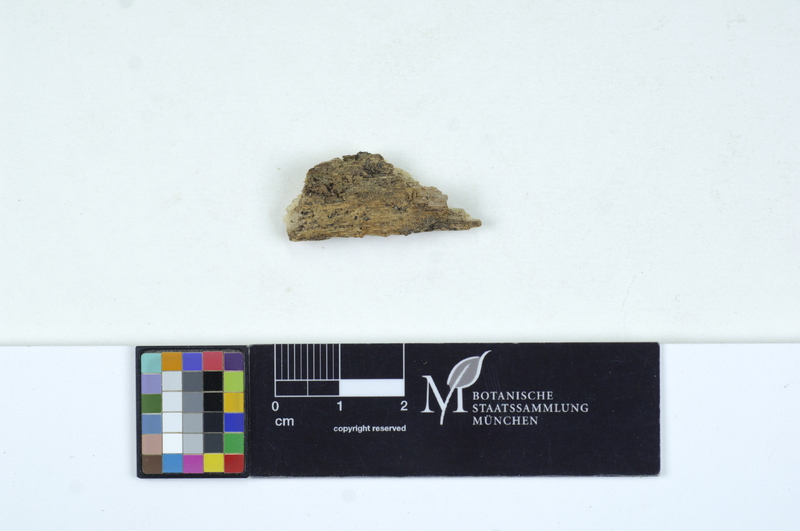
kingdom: Fungi
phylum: Basidiomycota
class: Agaricomycetes
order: Auriculariales
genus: Stypella
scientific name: Stypella subgelatinosa
